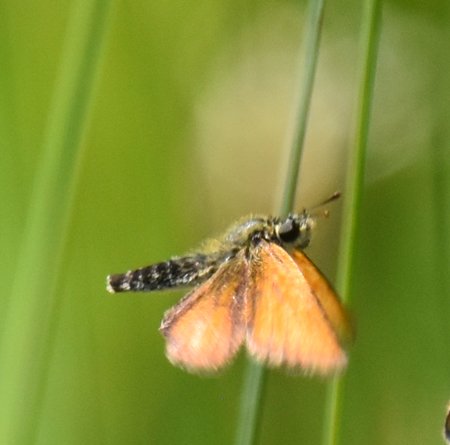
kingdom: Animalia
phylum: Arthropoda
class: Insecta
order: Lepidoptera
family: Hesperiidae
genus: Thymelicus
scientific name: Thymelicus lineola
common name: European Skipper
